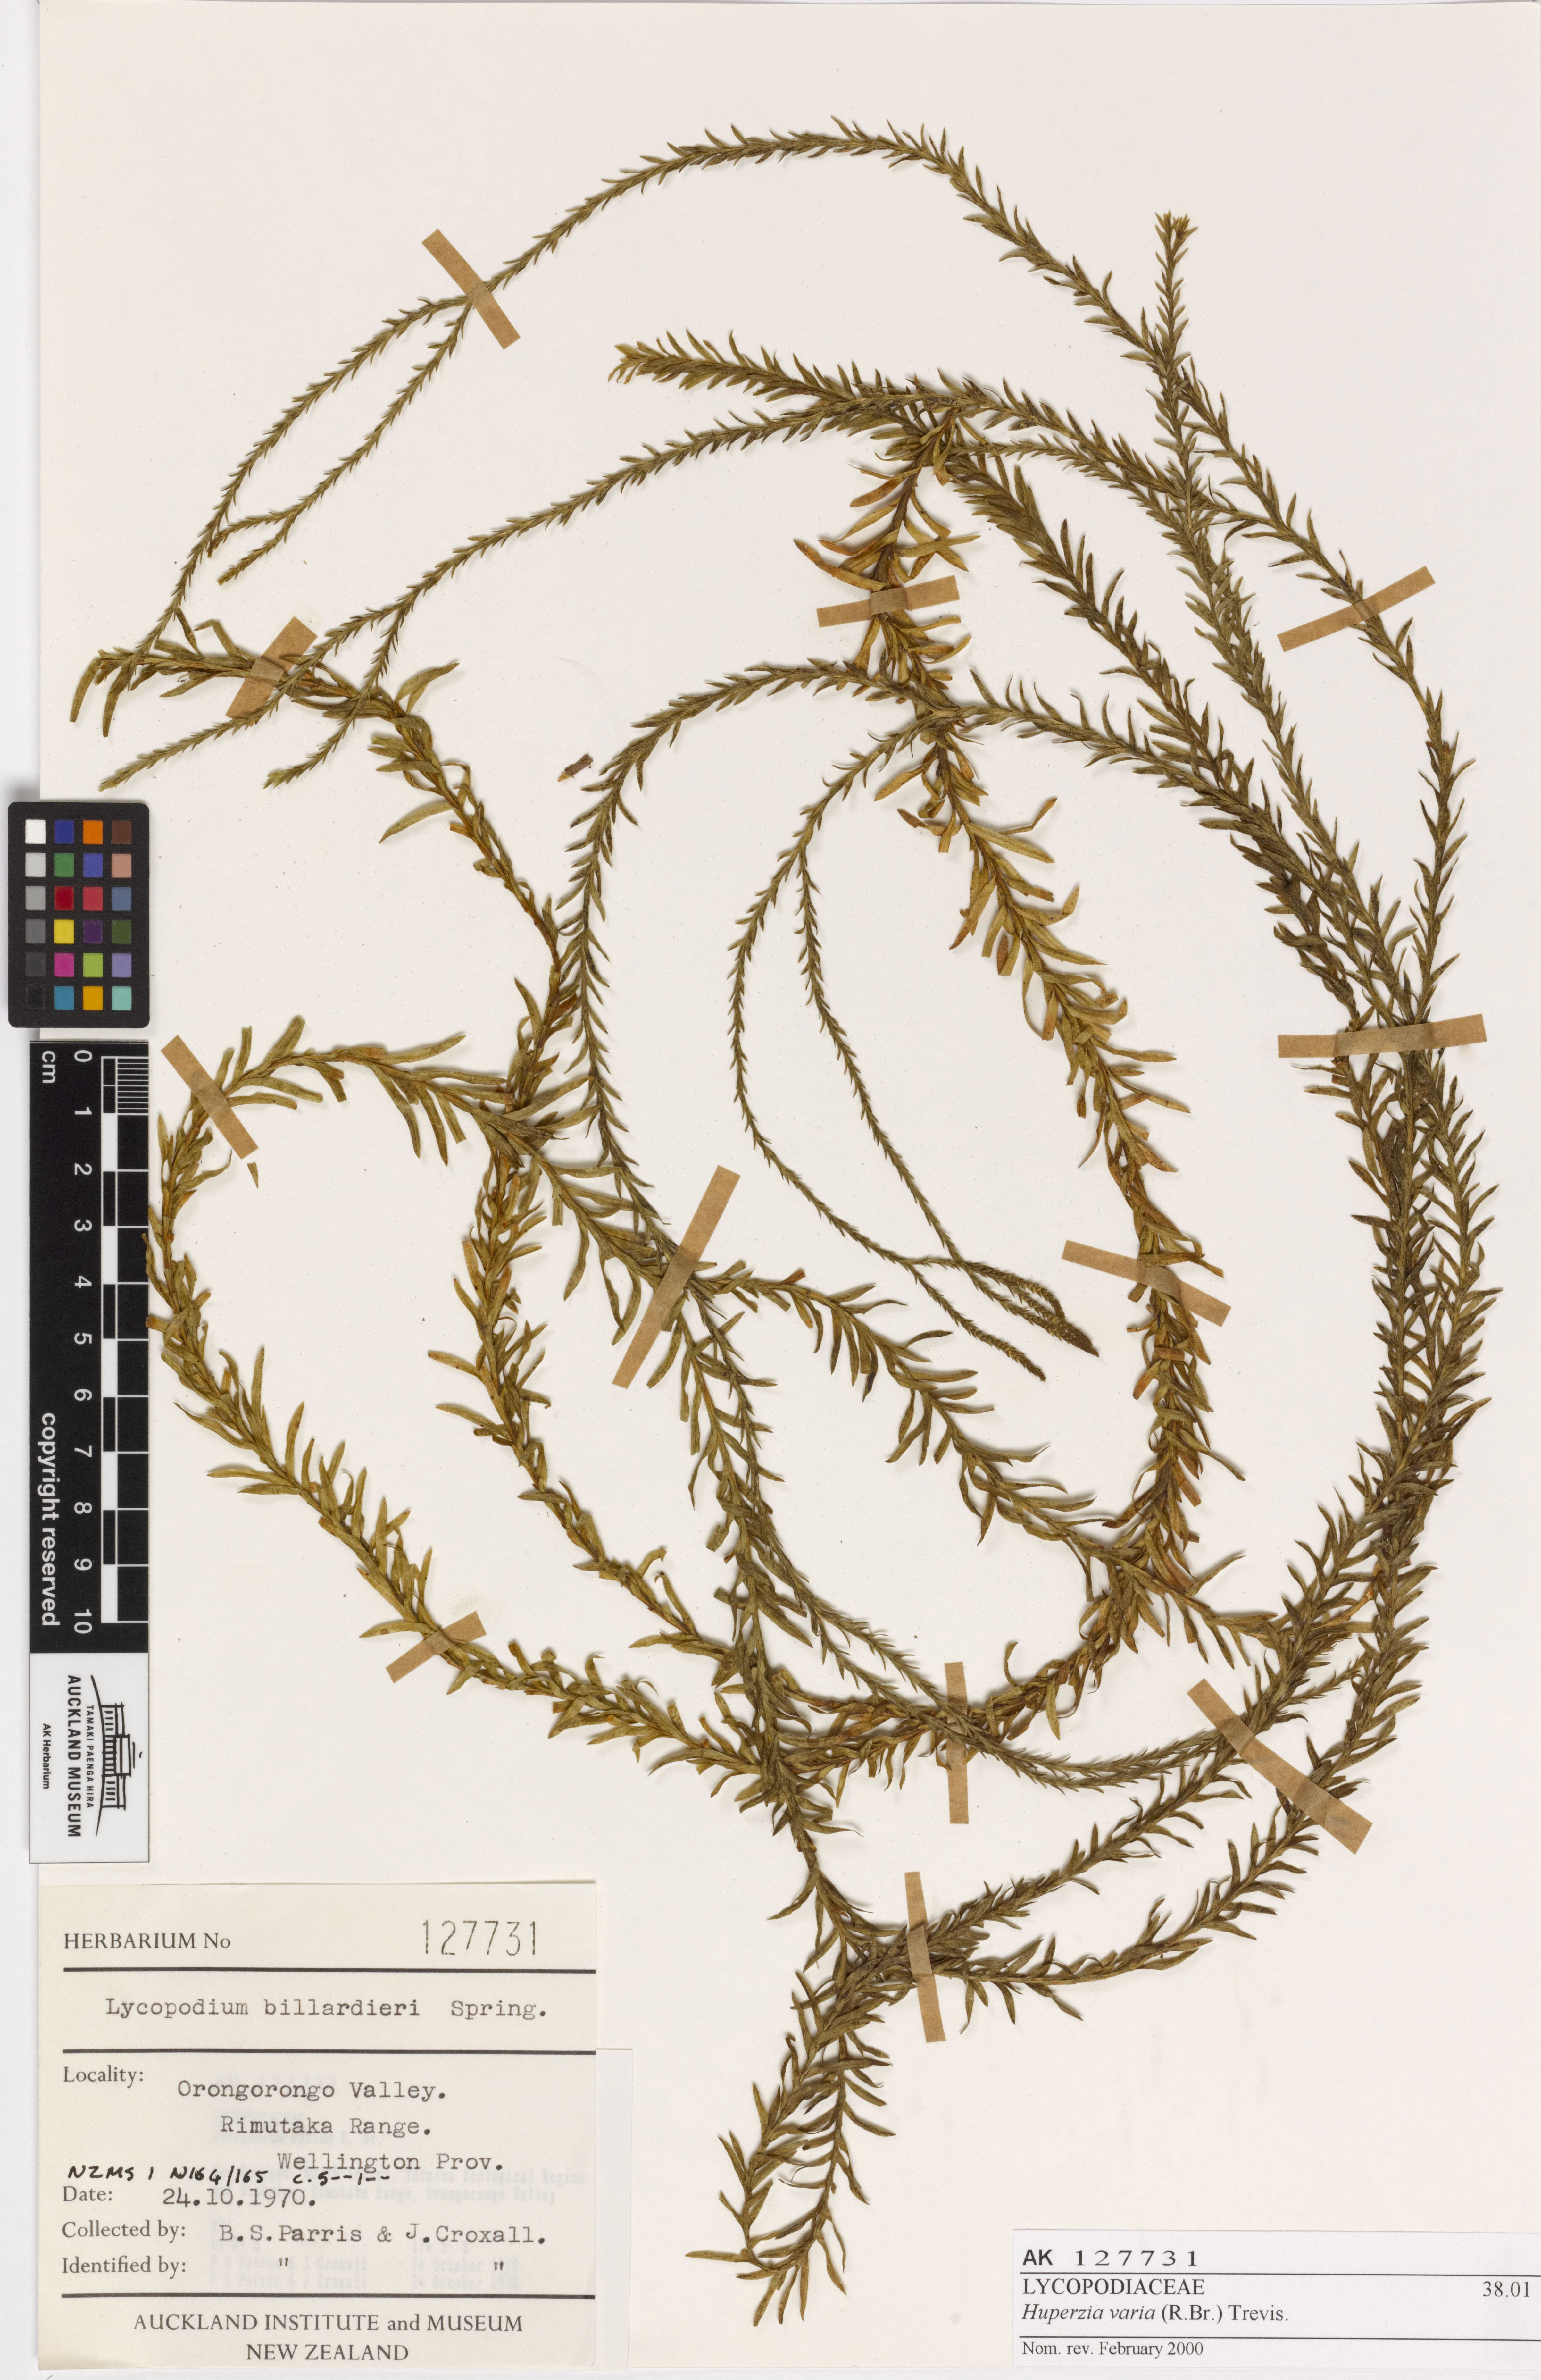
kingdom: Plantae
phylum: Tracheophyta
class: Lycopodiopsida
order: Lycopodiales
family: Lycopodiaceae
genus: Phlegmariurus
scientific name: Phlegmariurus billardierei
